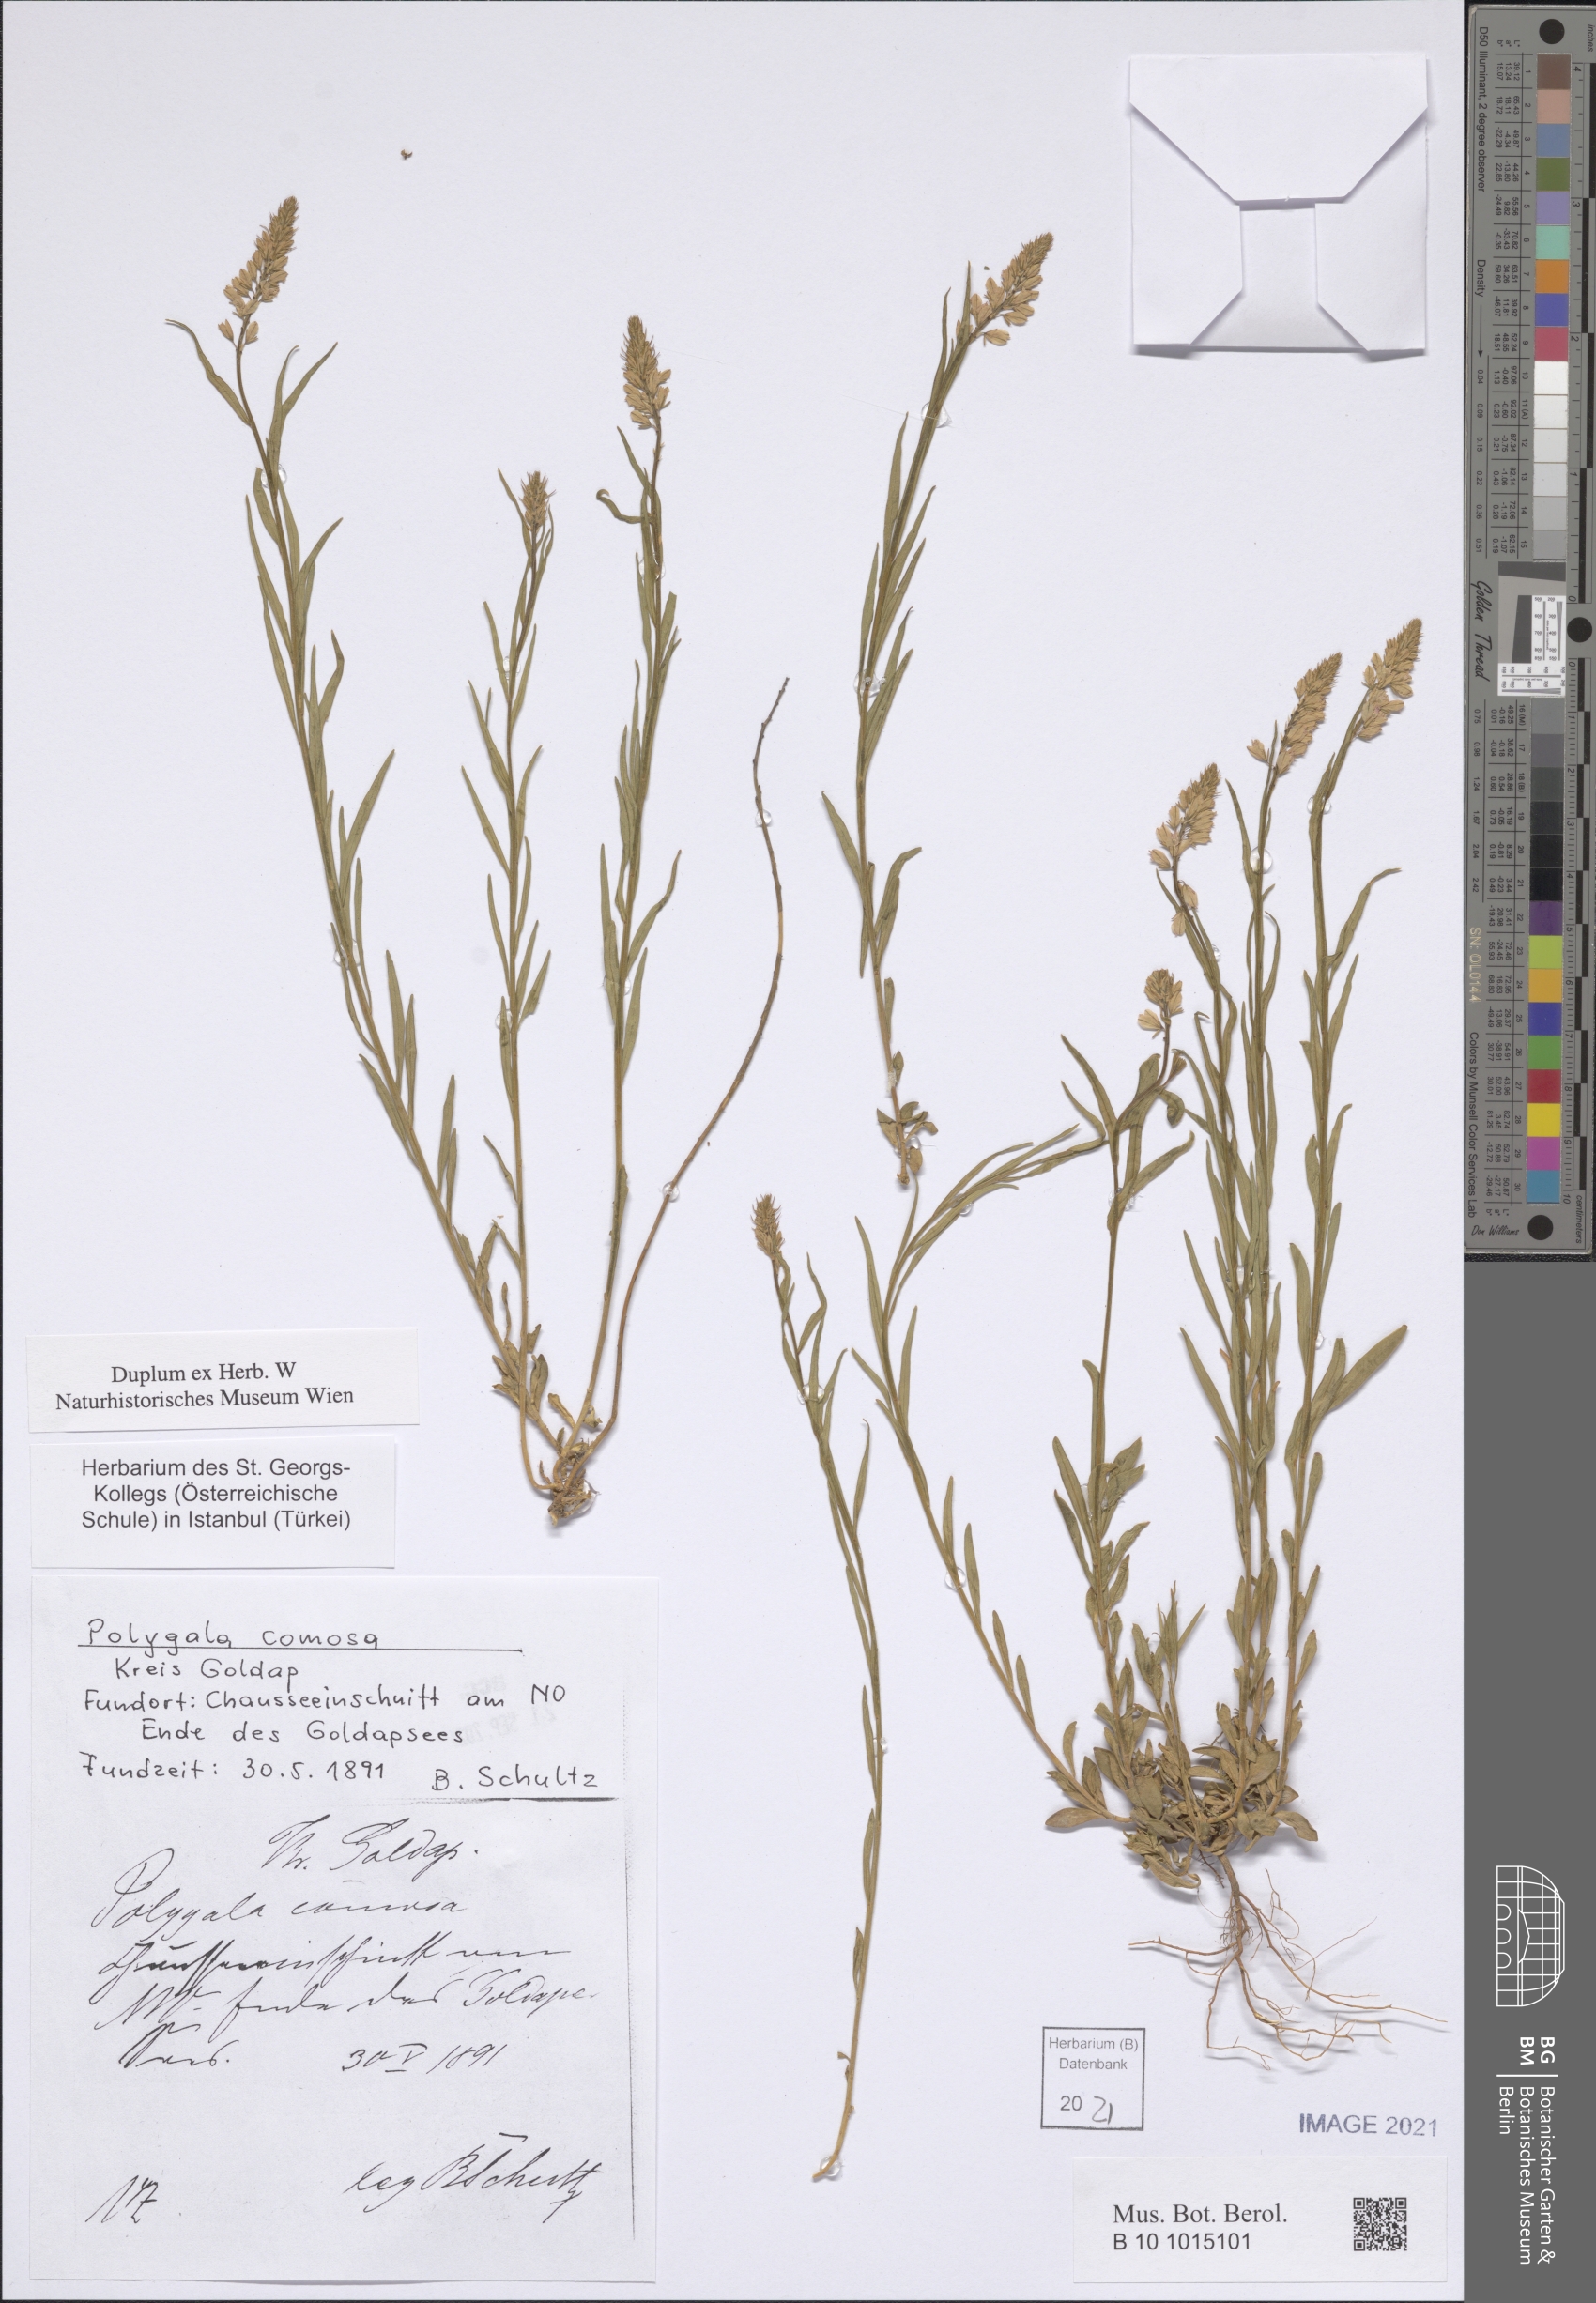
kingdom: Plantae
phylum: Tracheophyta
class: Magnoliopsida
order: Fabales
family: Polygalaceae
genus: Polygala
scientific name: Polygala comosa
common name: Tufted milkwort
